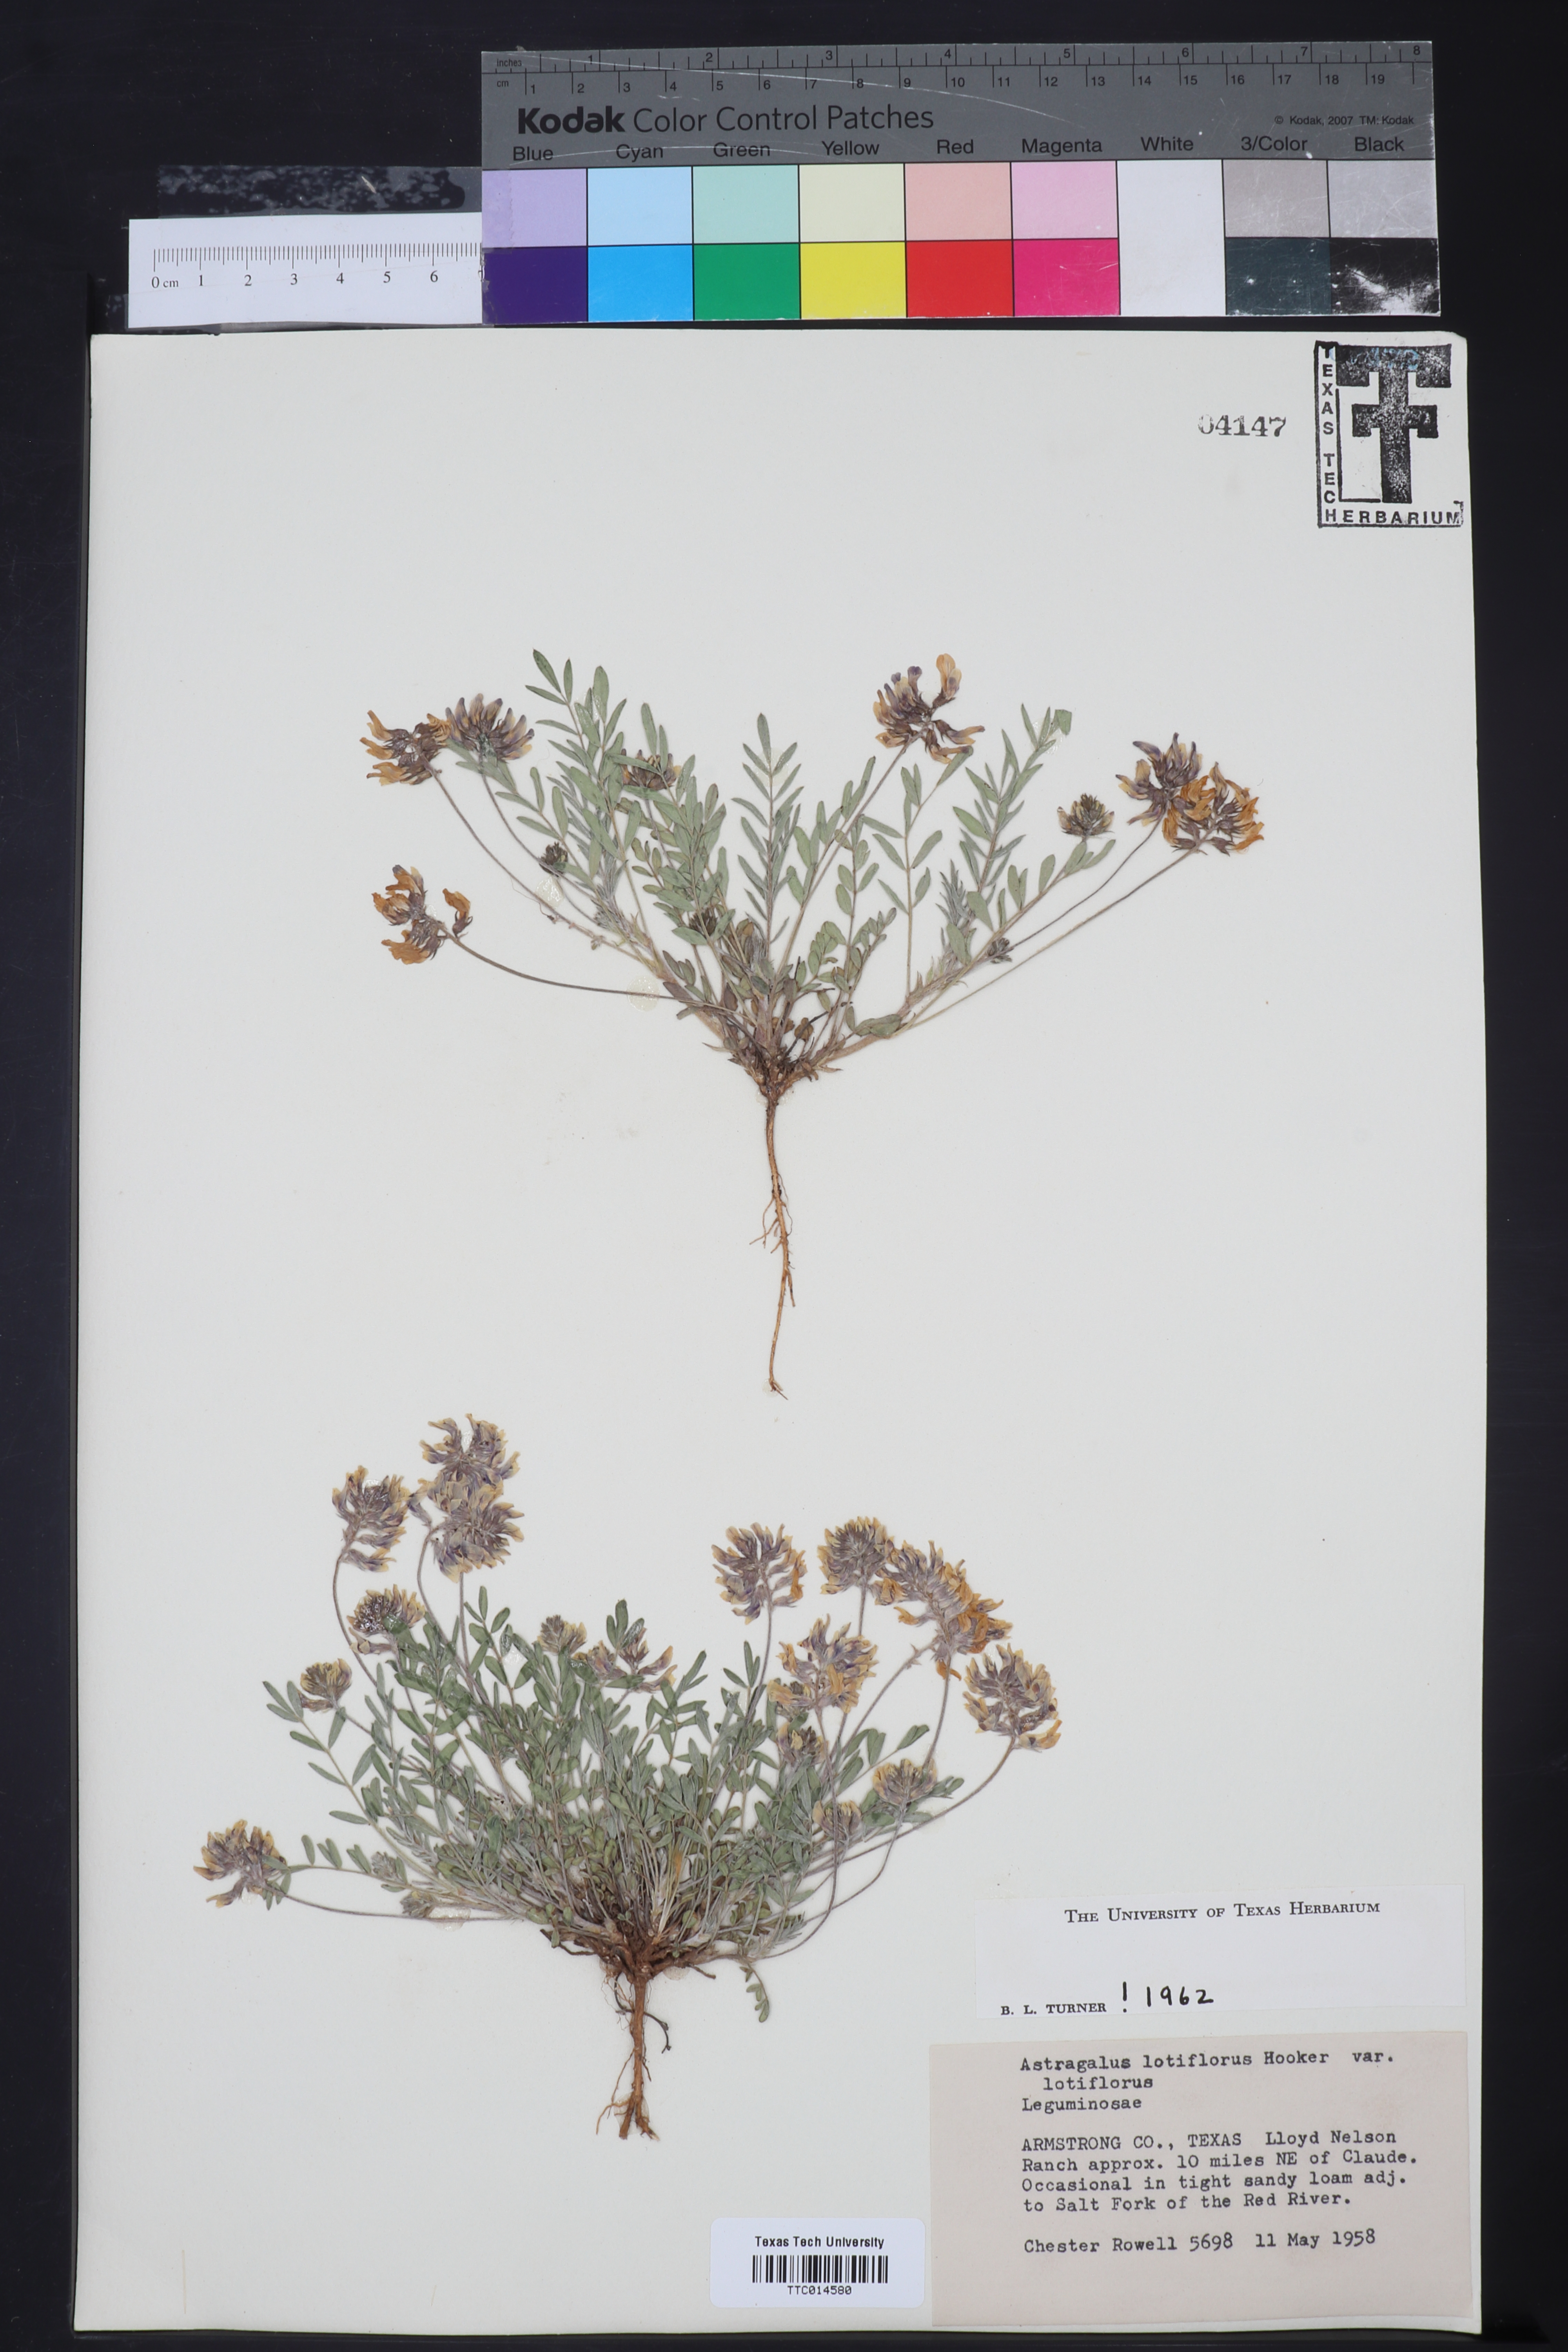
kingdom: Plantae
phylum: Tracheophyta
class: Magnoliopsida
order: Fabales
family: Fabaceae
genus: Astragalus
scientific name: Astragalus lotiflorus
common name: Lotus milk-vetch
